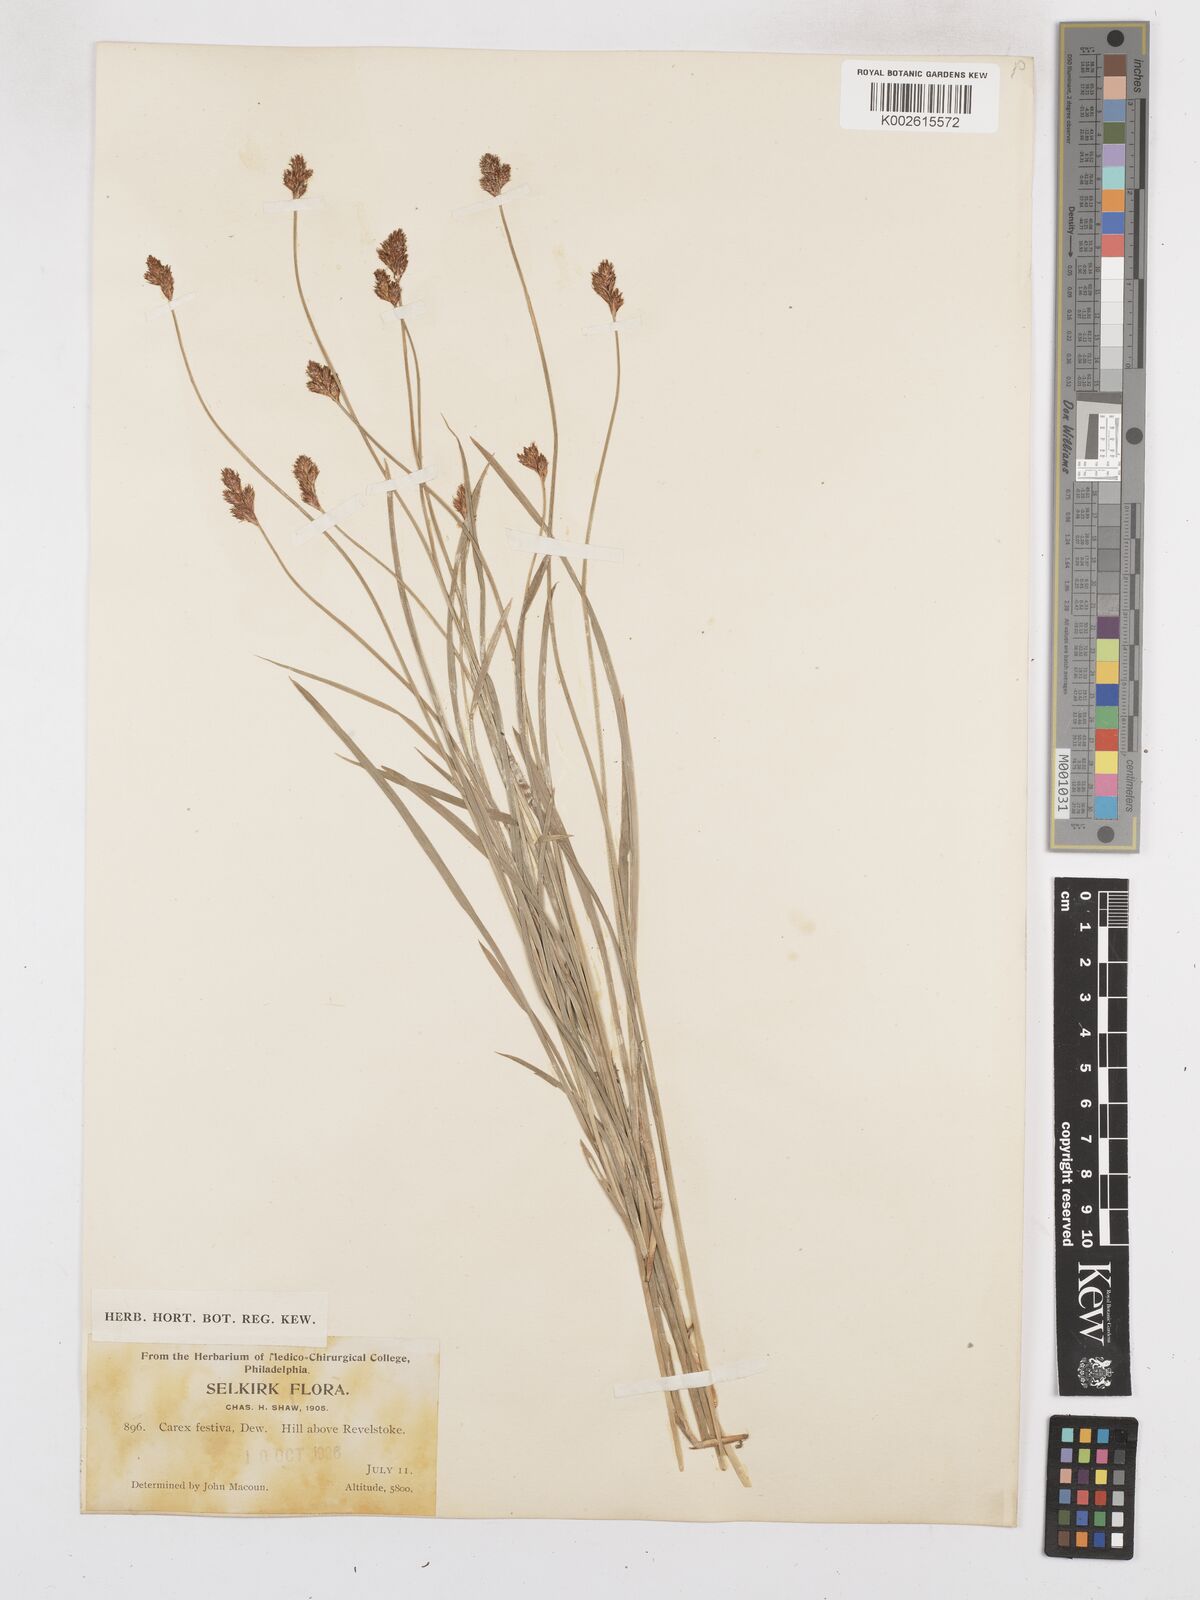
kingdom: Plantae
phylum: Tracheophyta
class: Liliopsida
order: Poales
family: Cyperaceae
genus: Carex
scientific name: Carex macloviana
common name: Falkland island sedge
